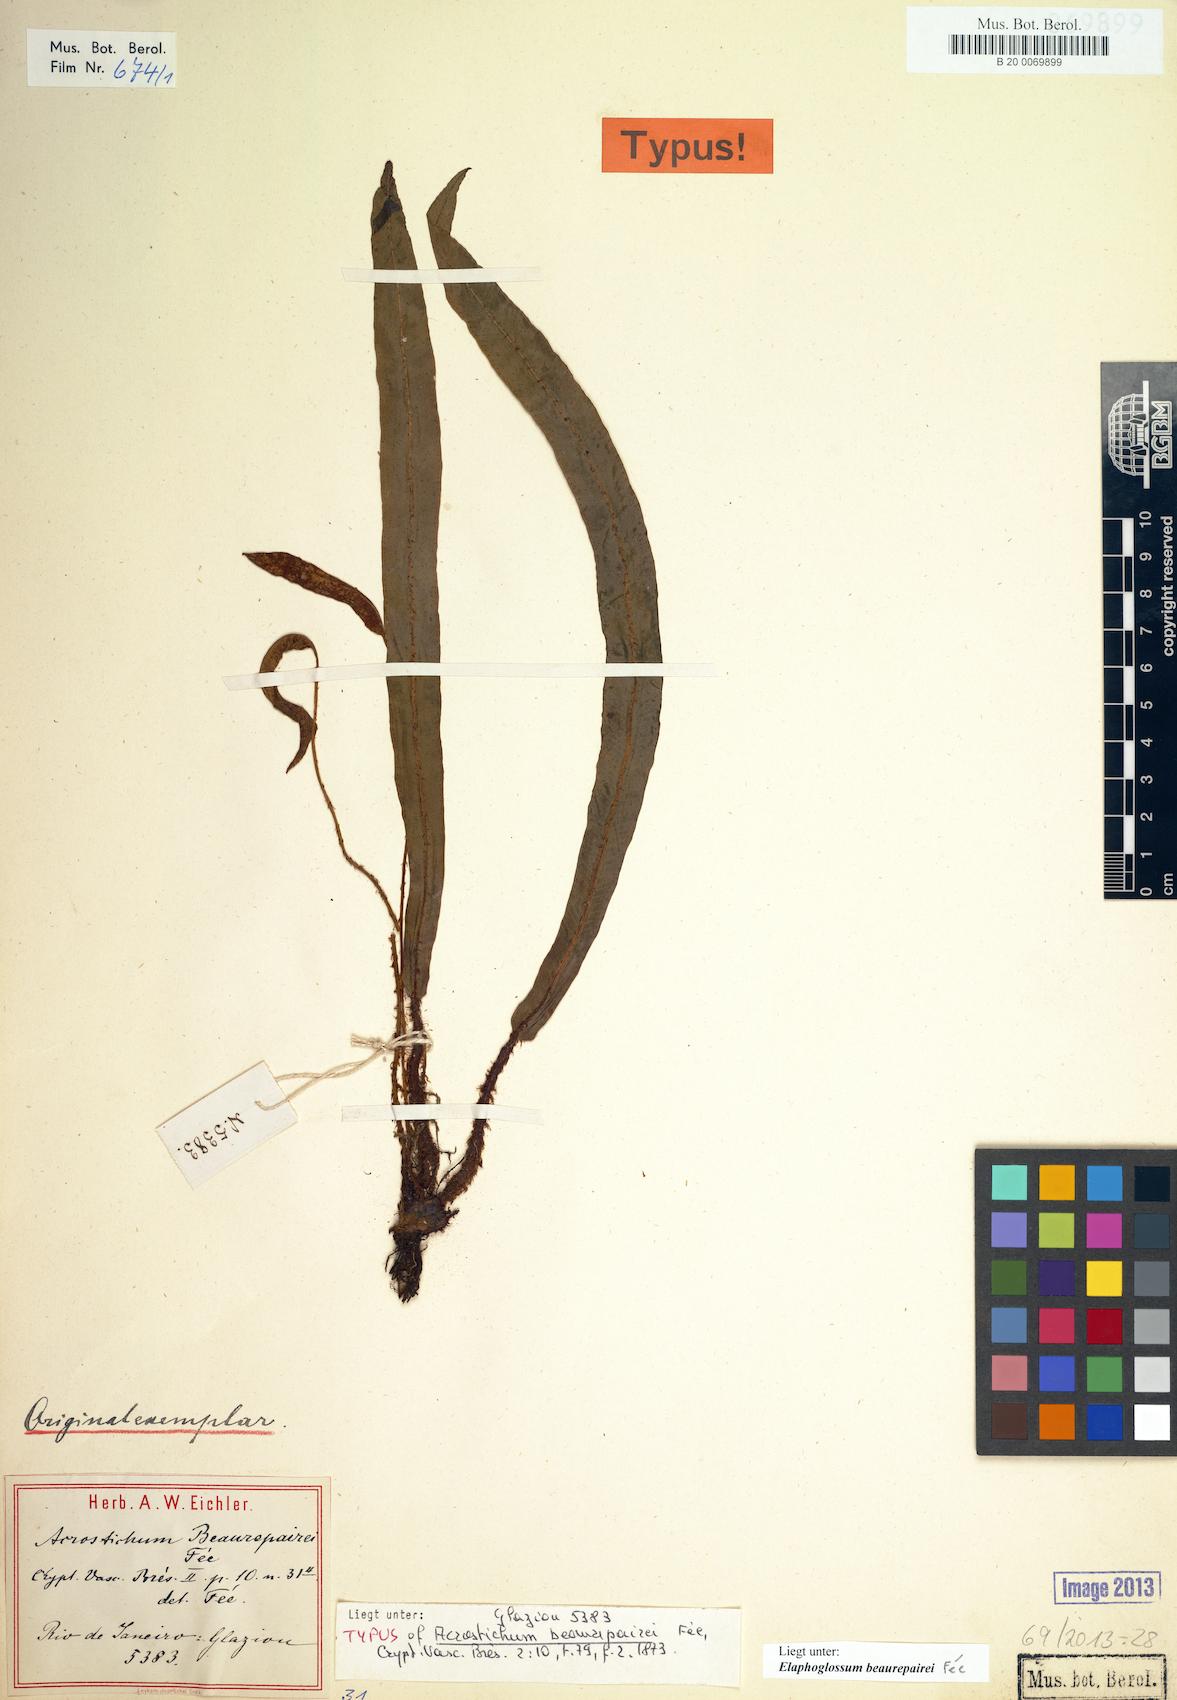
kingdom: Plantae
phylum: Tracheophyta
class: Polypodiopsida
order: Polypodiales
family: Dryopteridaceae
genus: Elaphoglossum
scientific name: Elaphoglossum beaurepairei
